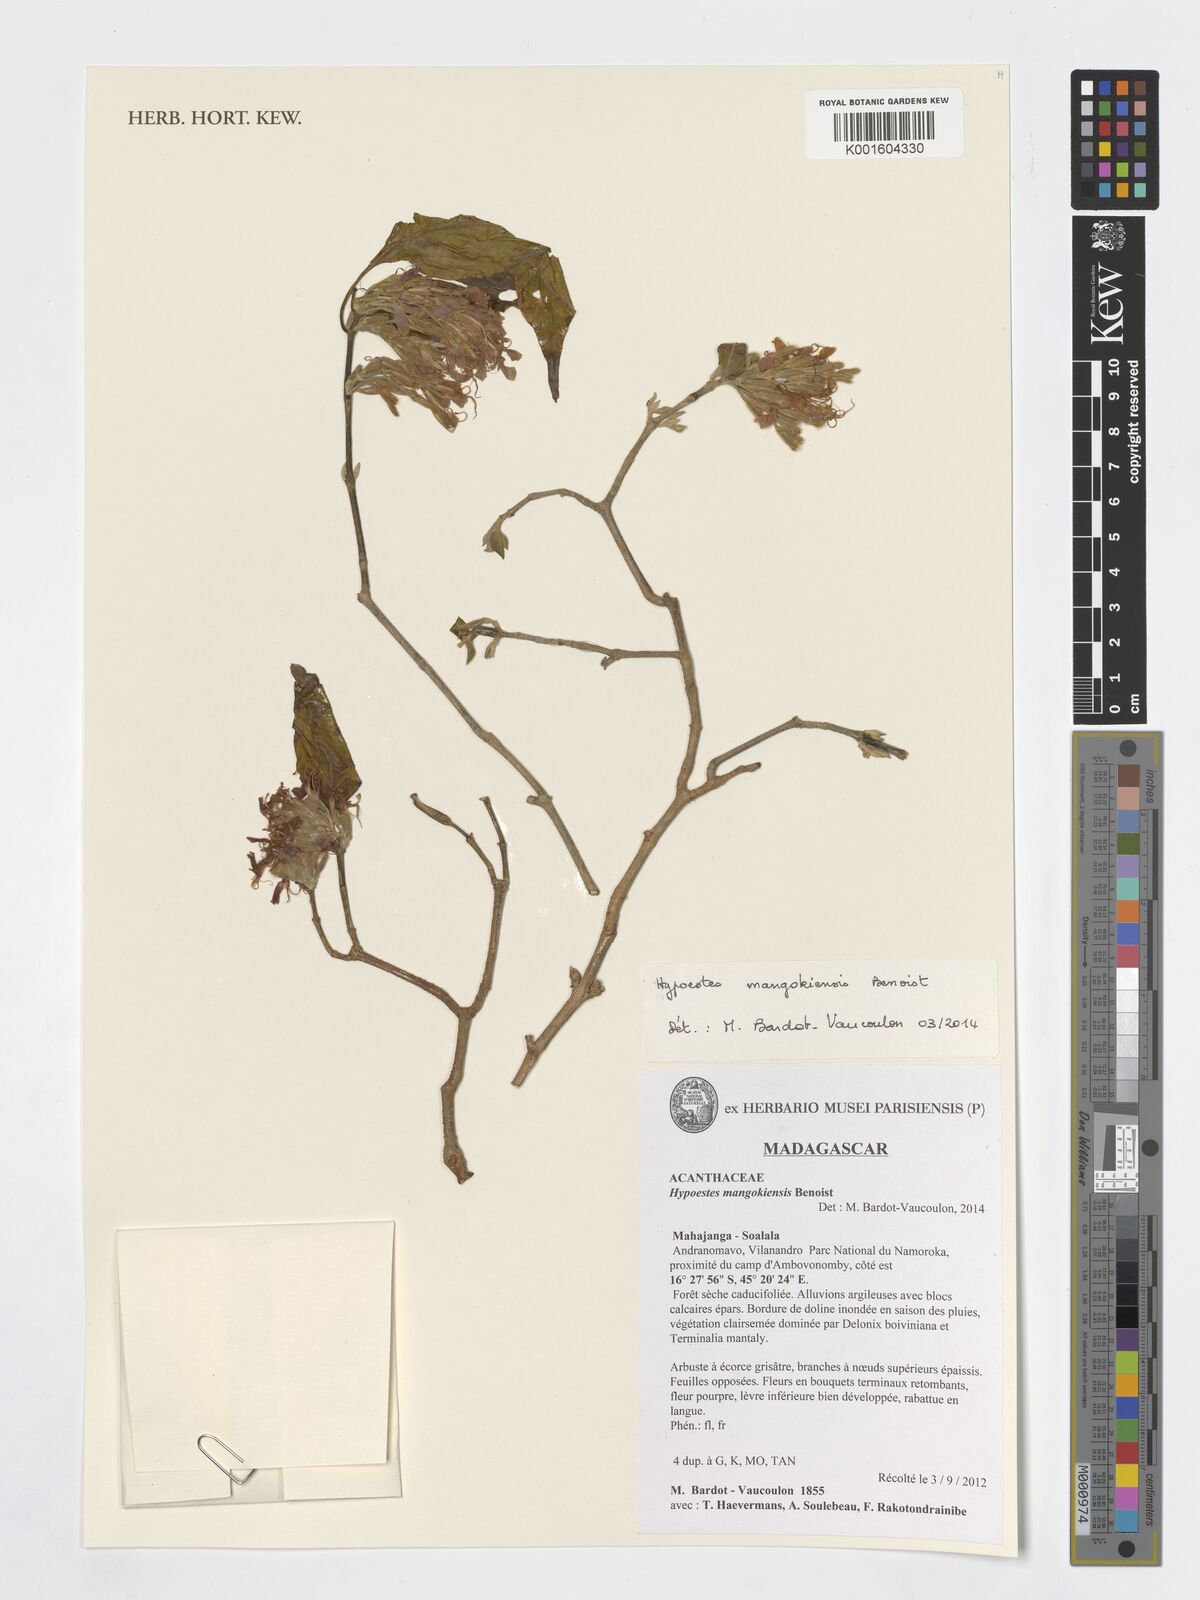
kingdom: Plantae
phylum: Tracheophyta
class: Magnoliopsida
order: Lamiales
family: Acanthaceae
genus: Hypoestes
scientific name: Hypoestes mangokiensis
